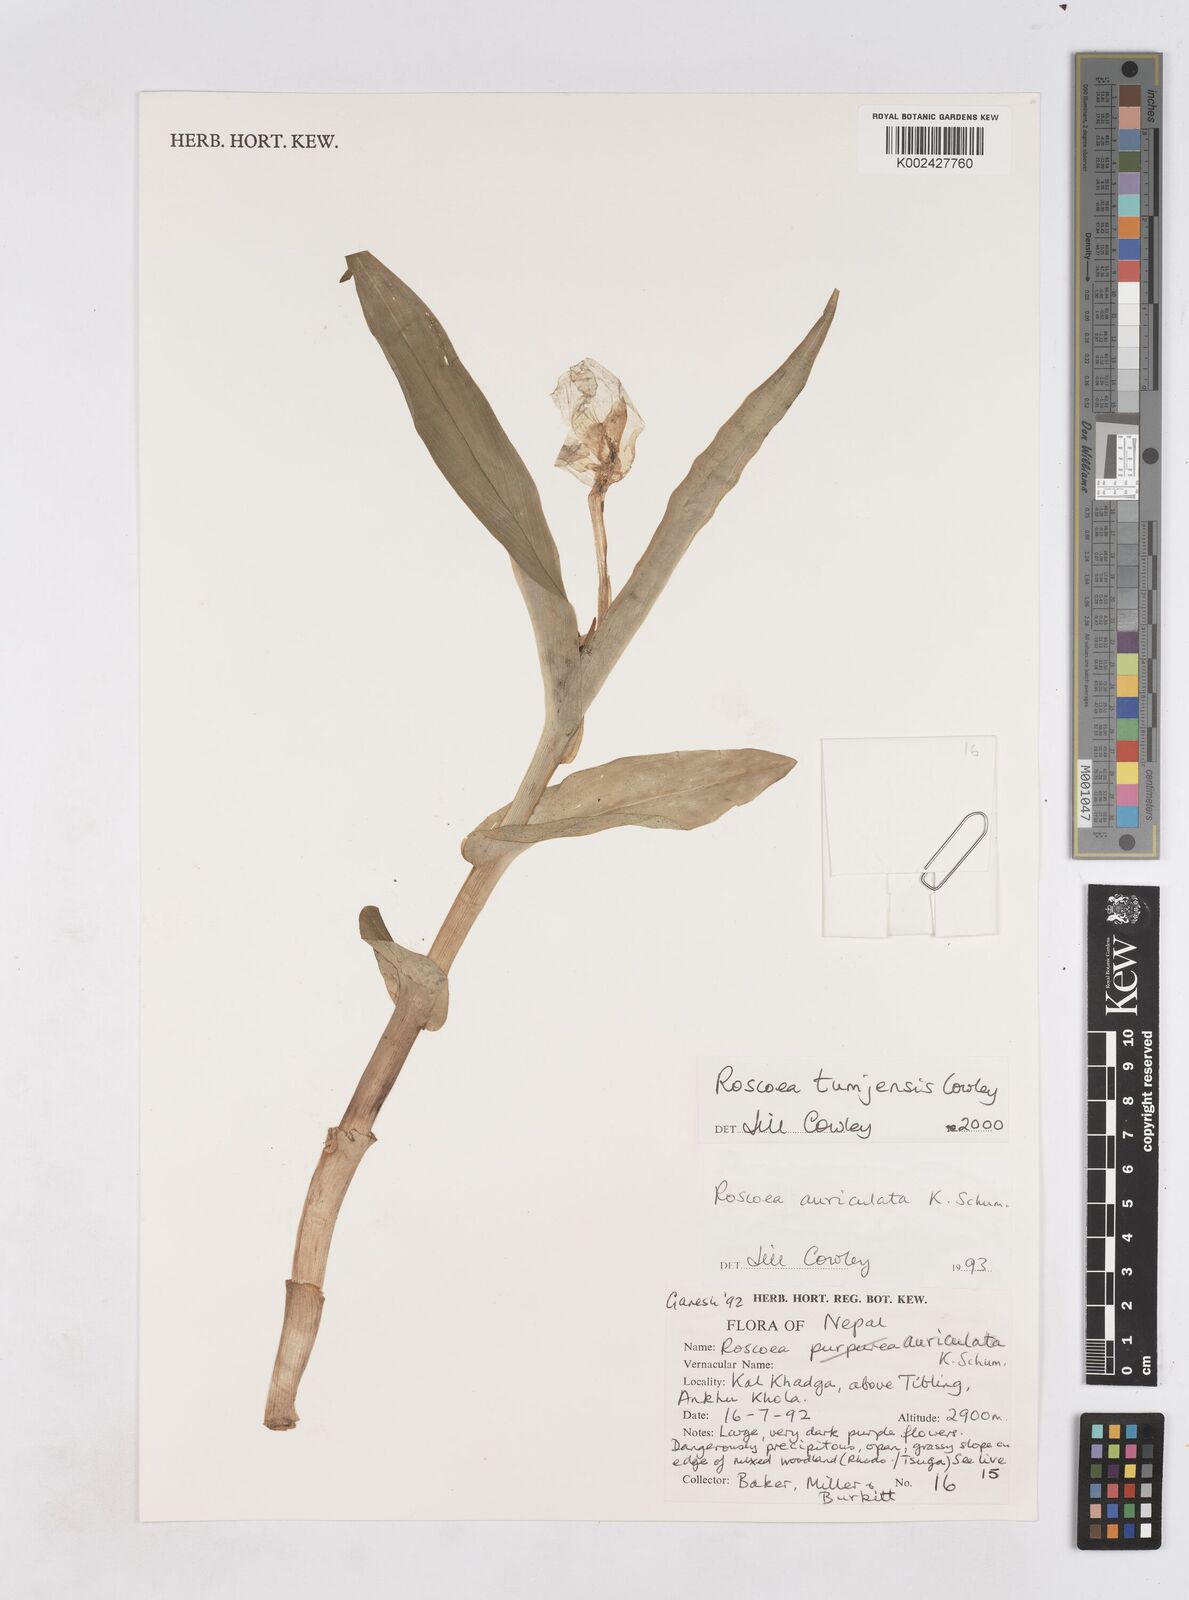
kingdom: Plantae
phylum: Tracheophyta
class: Liliopsida
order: Zingiberales
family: Zingiberaceae
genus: Roscoea
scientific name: Roscoea tumjensis
